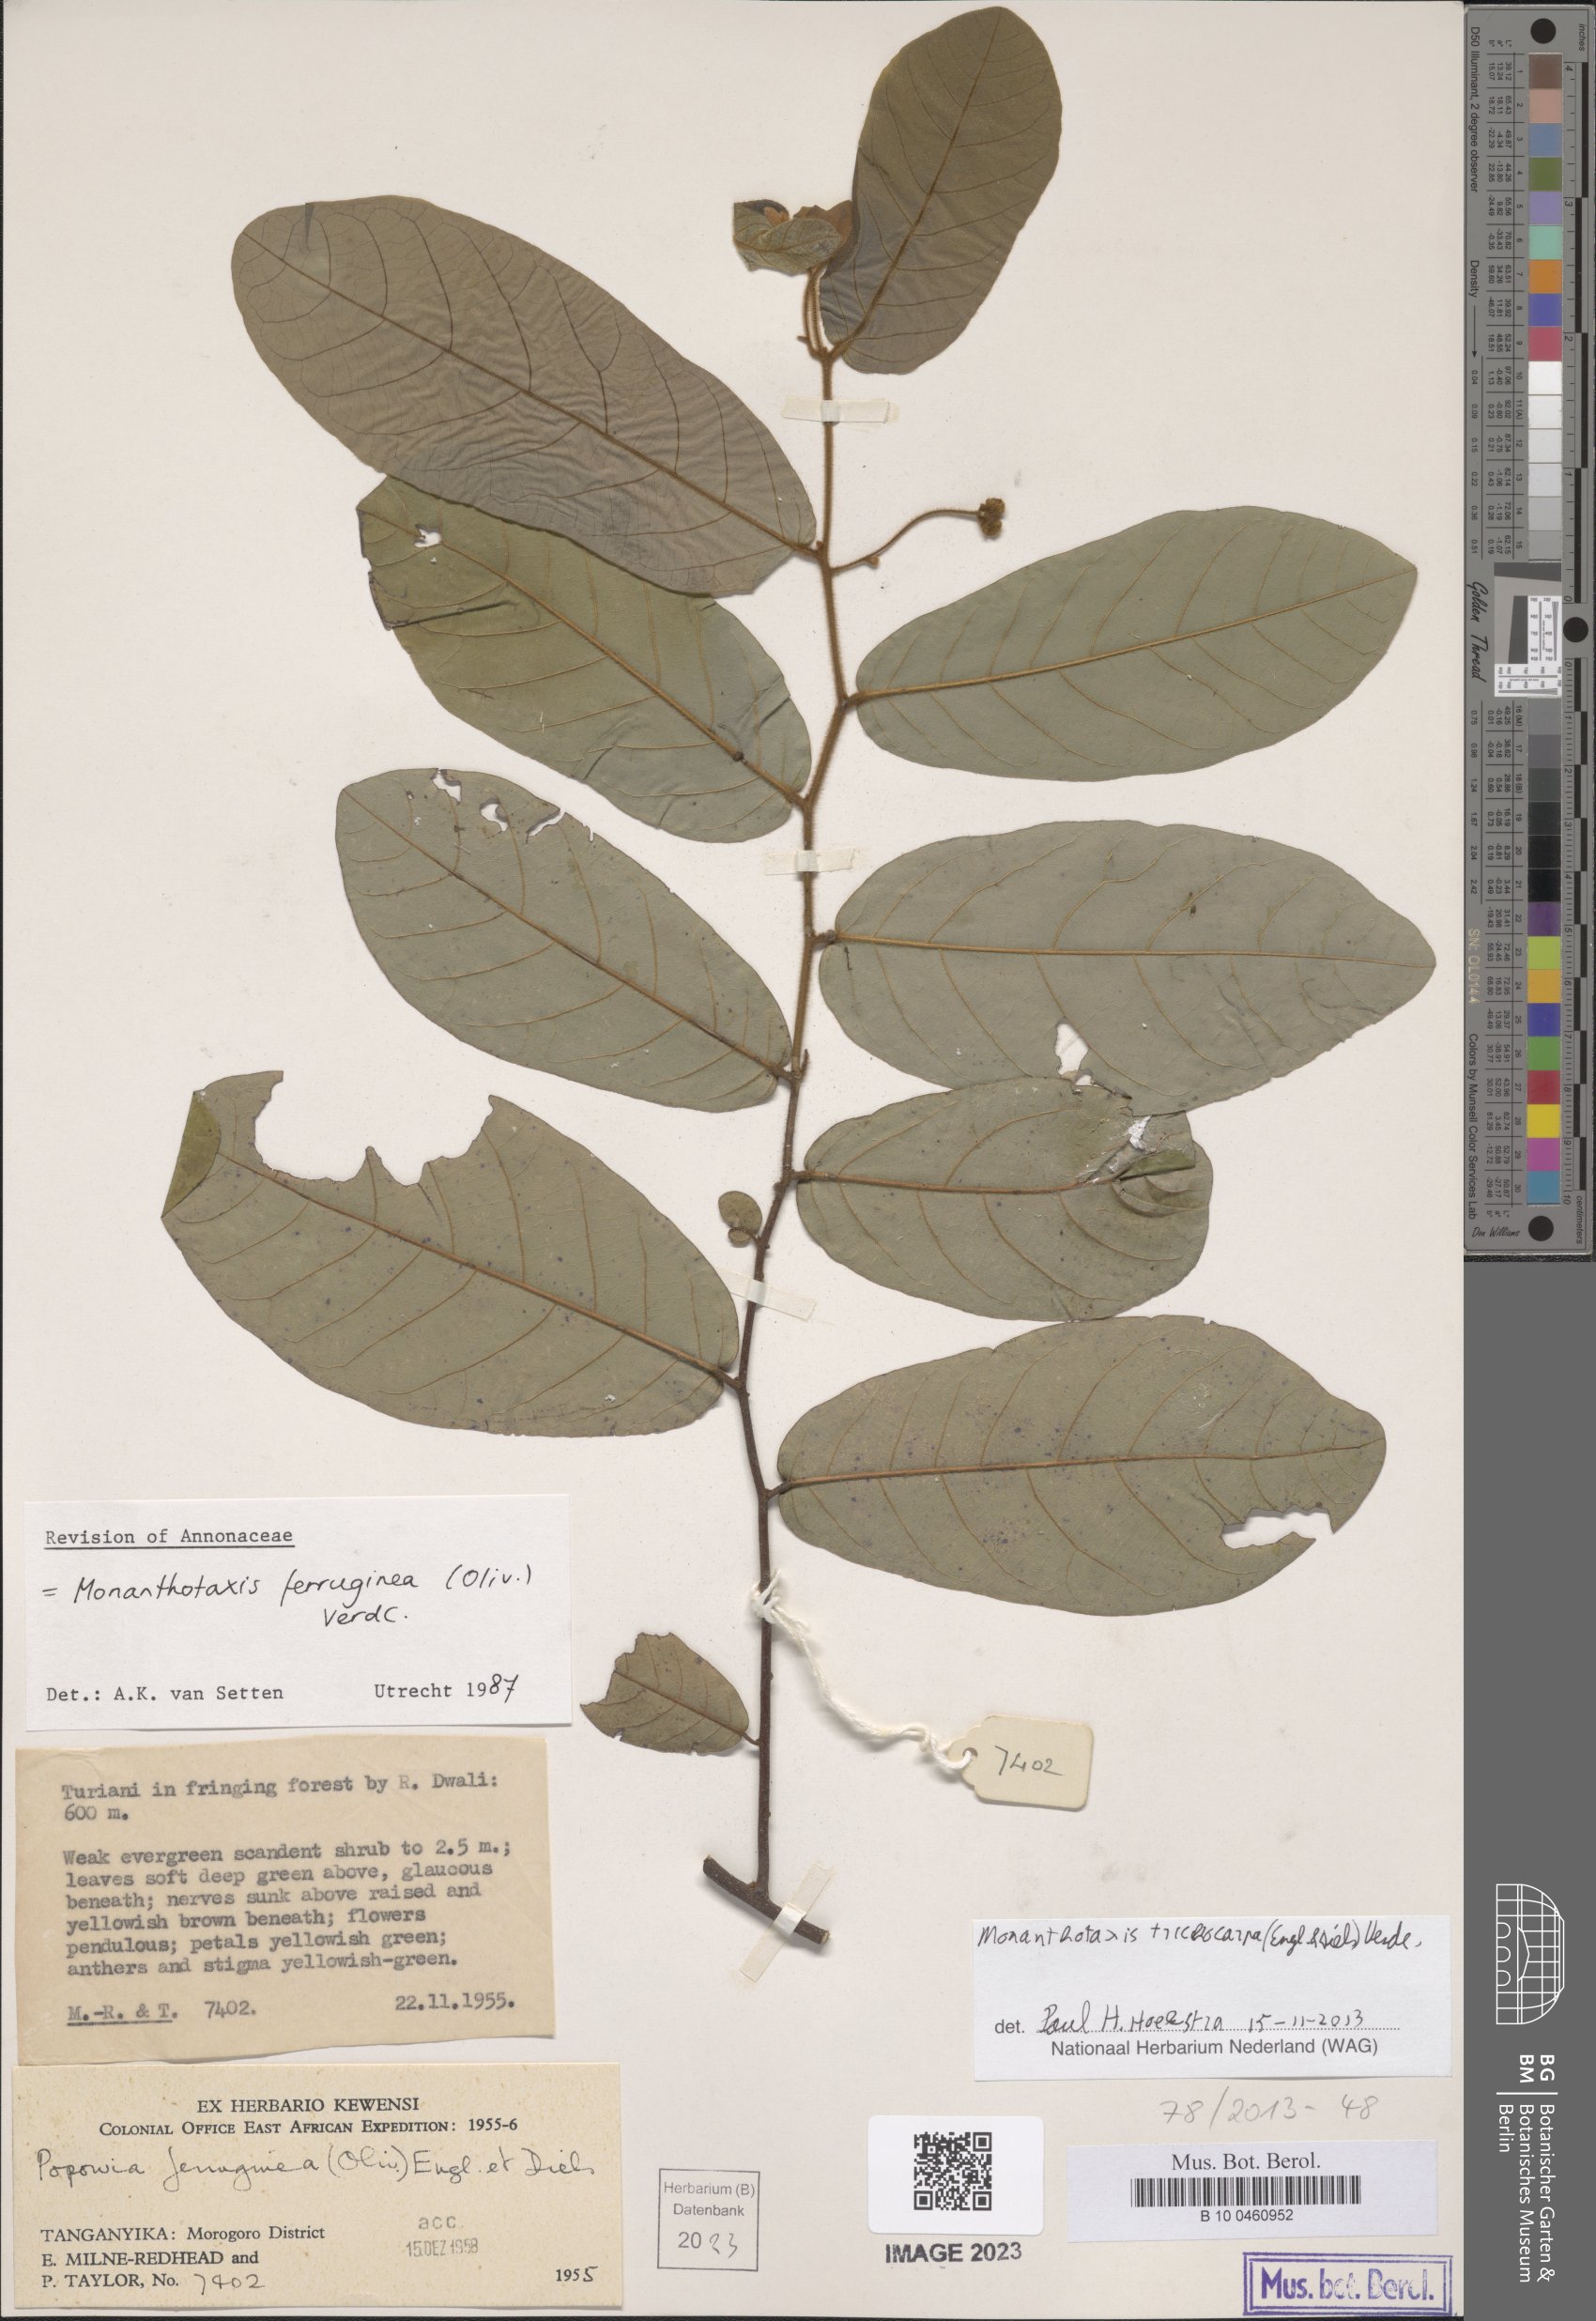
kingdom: Plantae
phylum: Tracheophyta
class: Magnoliopsida
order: Magnoliales
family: Annonaceae
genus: Monanthotaxis
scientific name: Monanthotaxis trichocarpa
